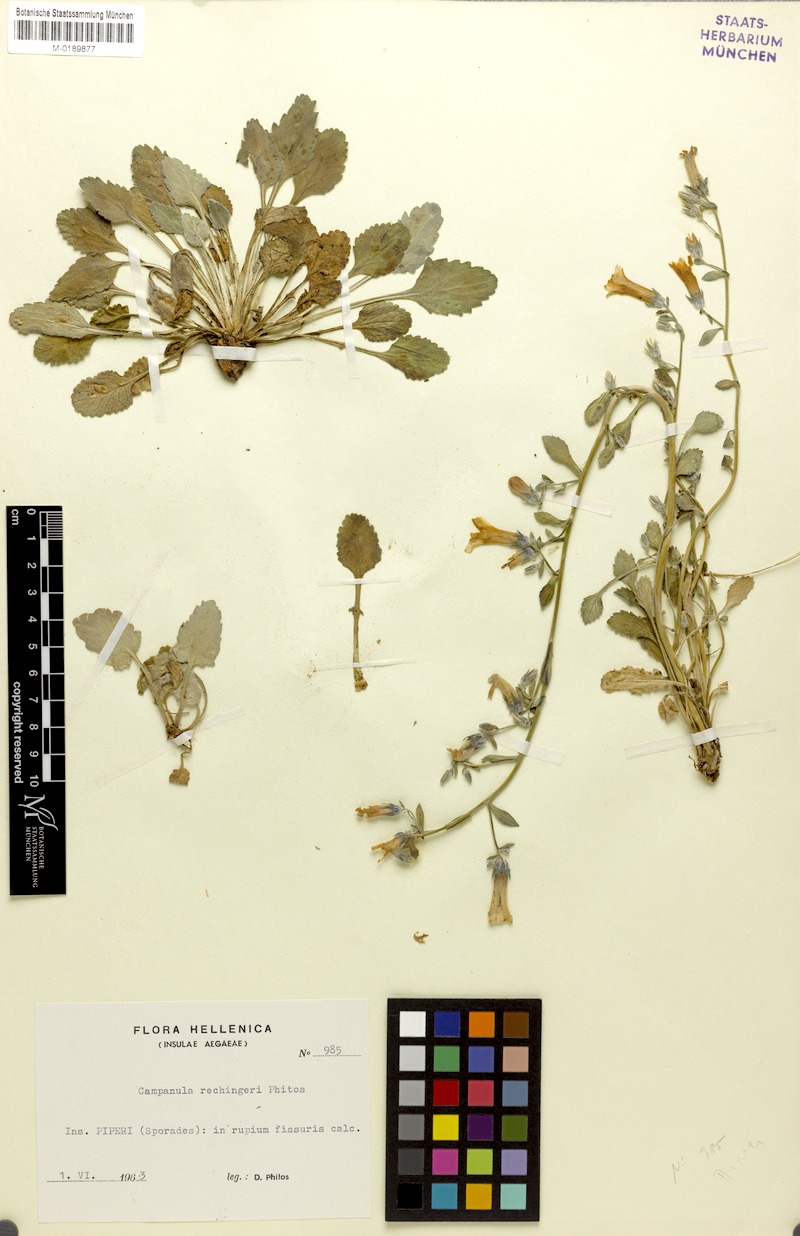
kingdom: Plantae
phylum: Tracheophyta
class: Magnoliopsida
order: Asterales
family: Campanulaceae
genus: Campanula
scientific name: Campanula rechingeri
